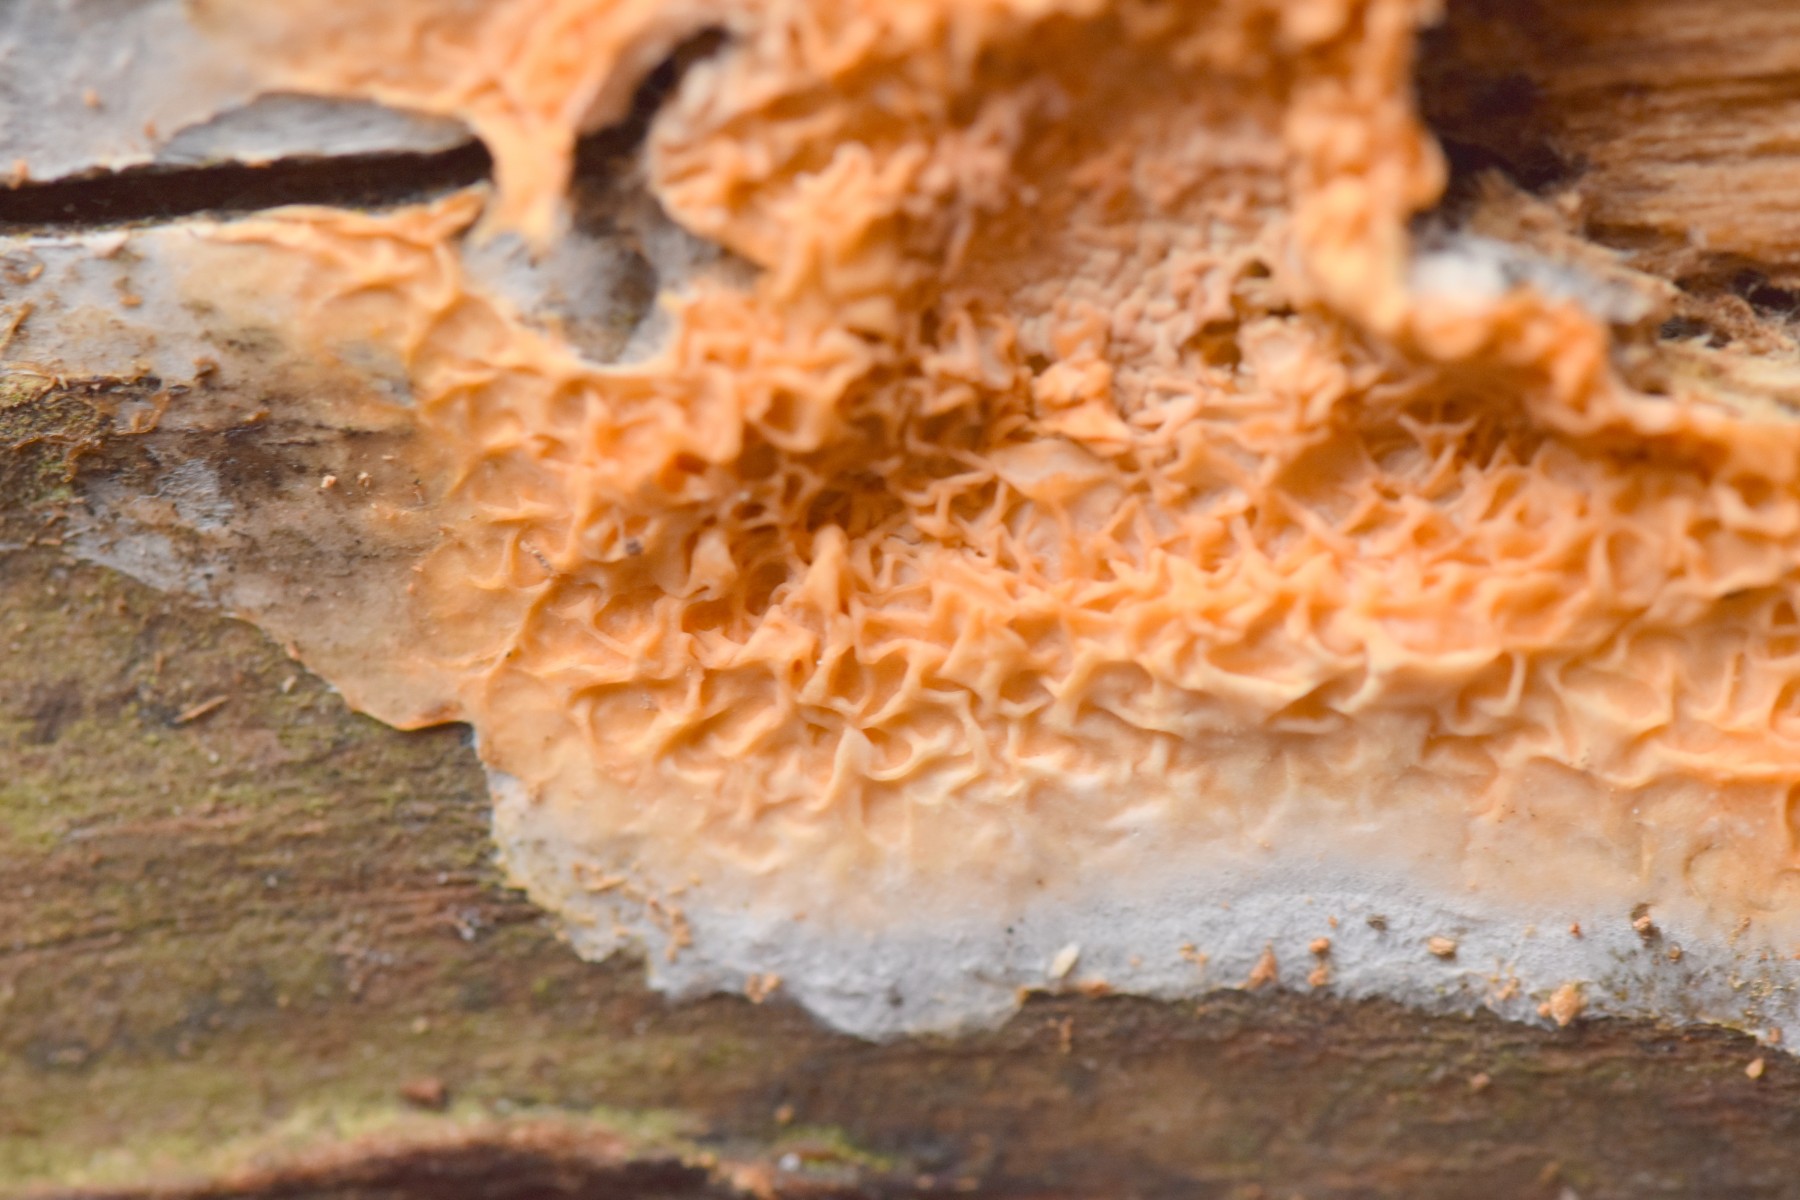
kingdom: Fungi
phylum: Basidiomycota
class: Agaricomycetes
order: Boletales
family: Hygrophoropsidaceae
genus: Leucogyrophana
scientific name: Leucogyrophana mollusca
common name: blød hussvamp
